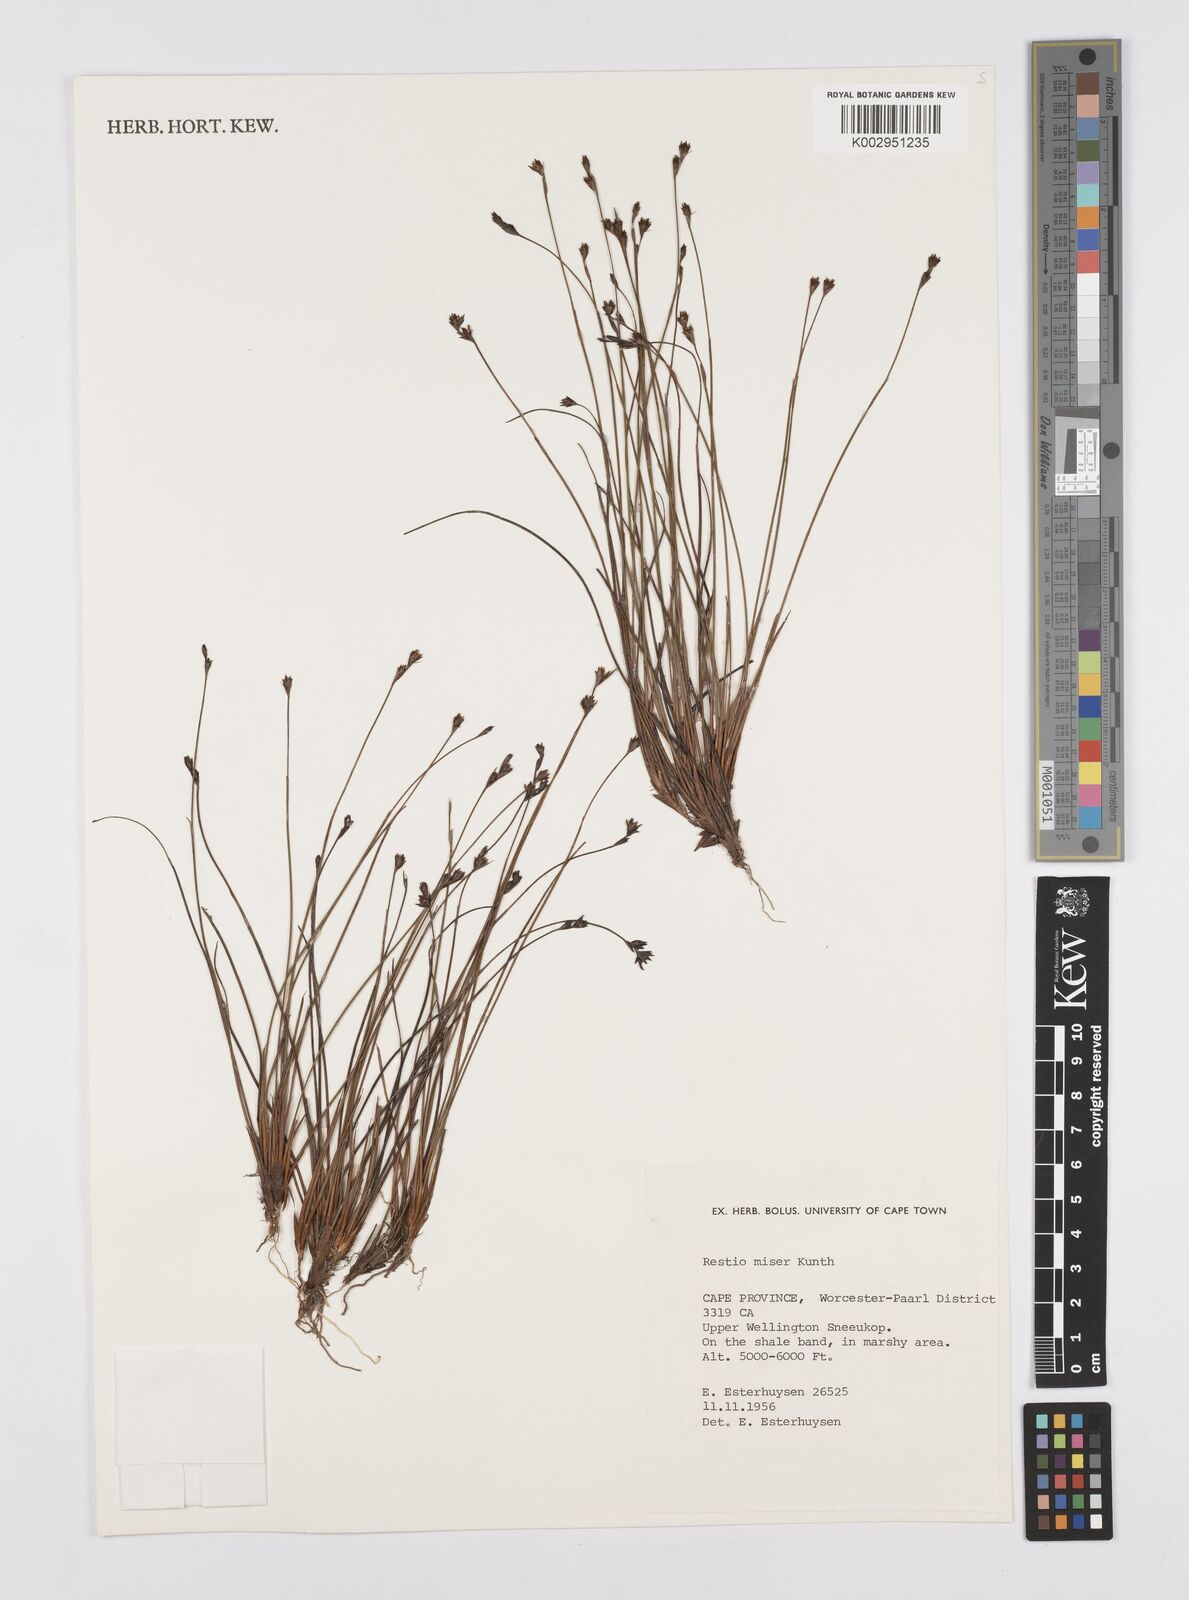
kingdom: Plantae
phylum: Tracheophyta
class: Liliopsida
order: Poales
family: Restionaceae
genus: Restio
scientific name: Restio miser
